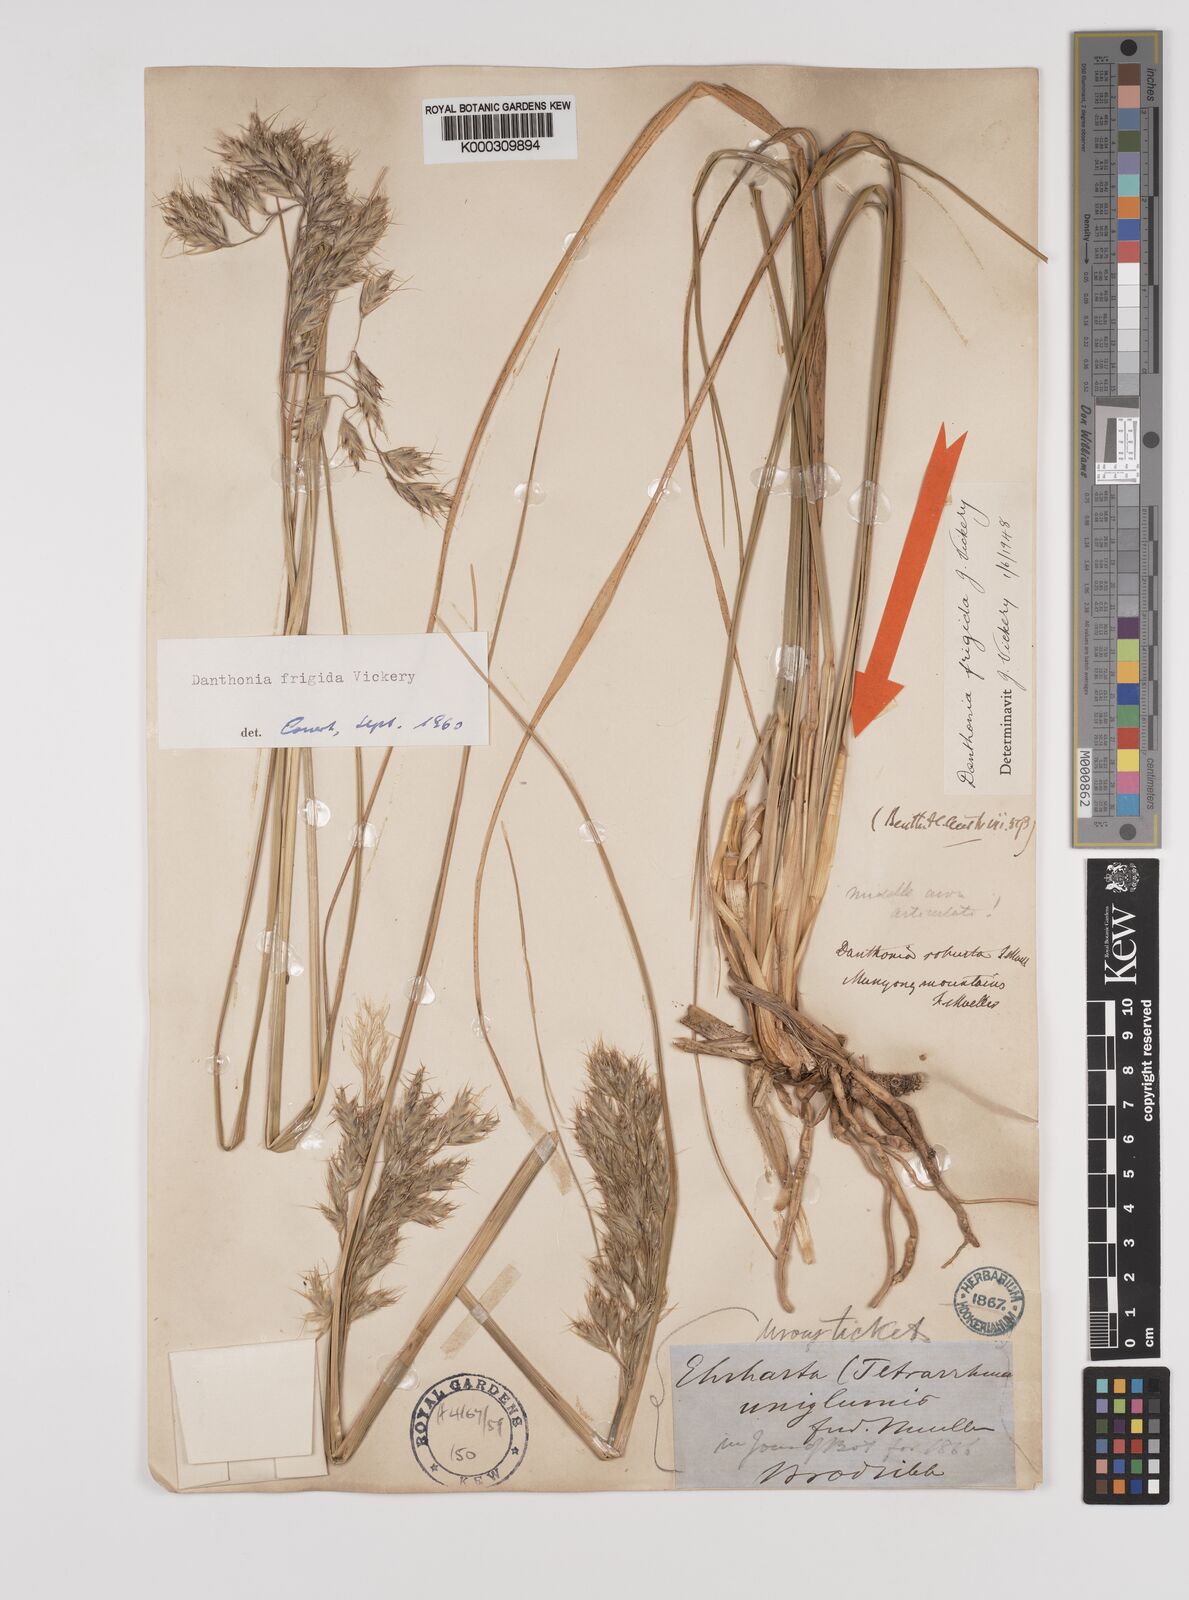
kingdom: Plantae
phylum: Tracheophyta
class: Liliopsida
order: Poales
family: Poaceae
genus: Chionochloa
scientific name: Chionochloa frigida
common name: Robust wallaby grass
